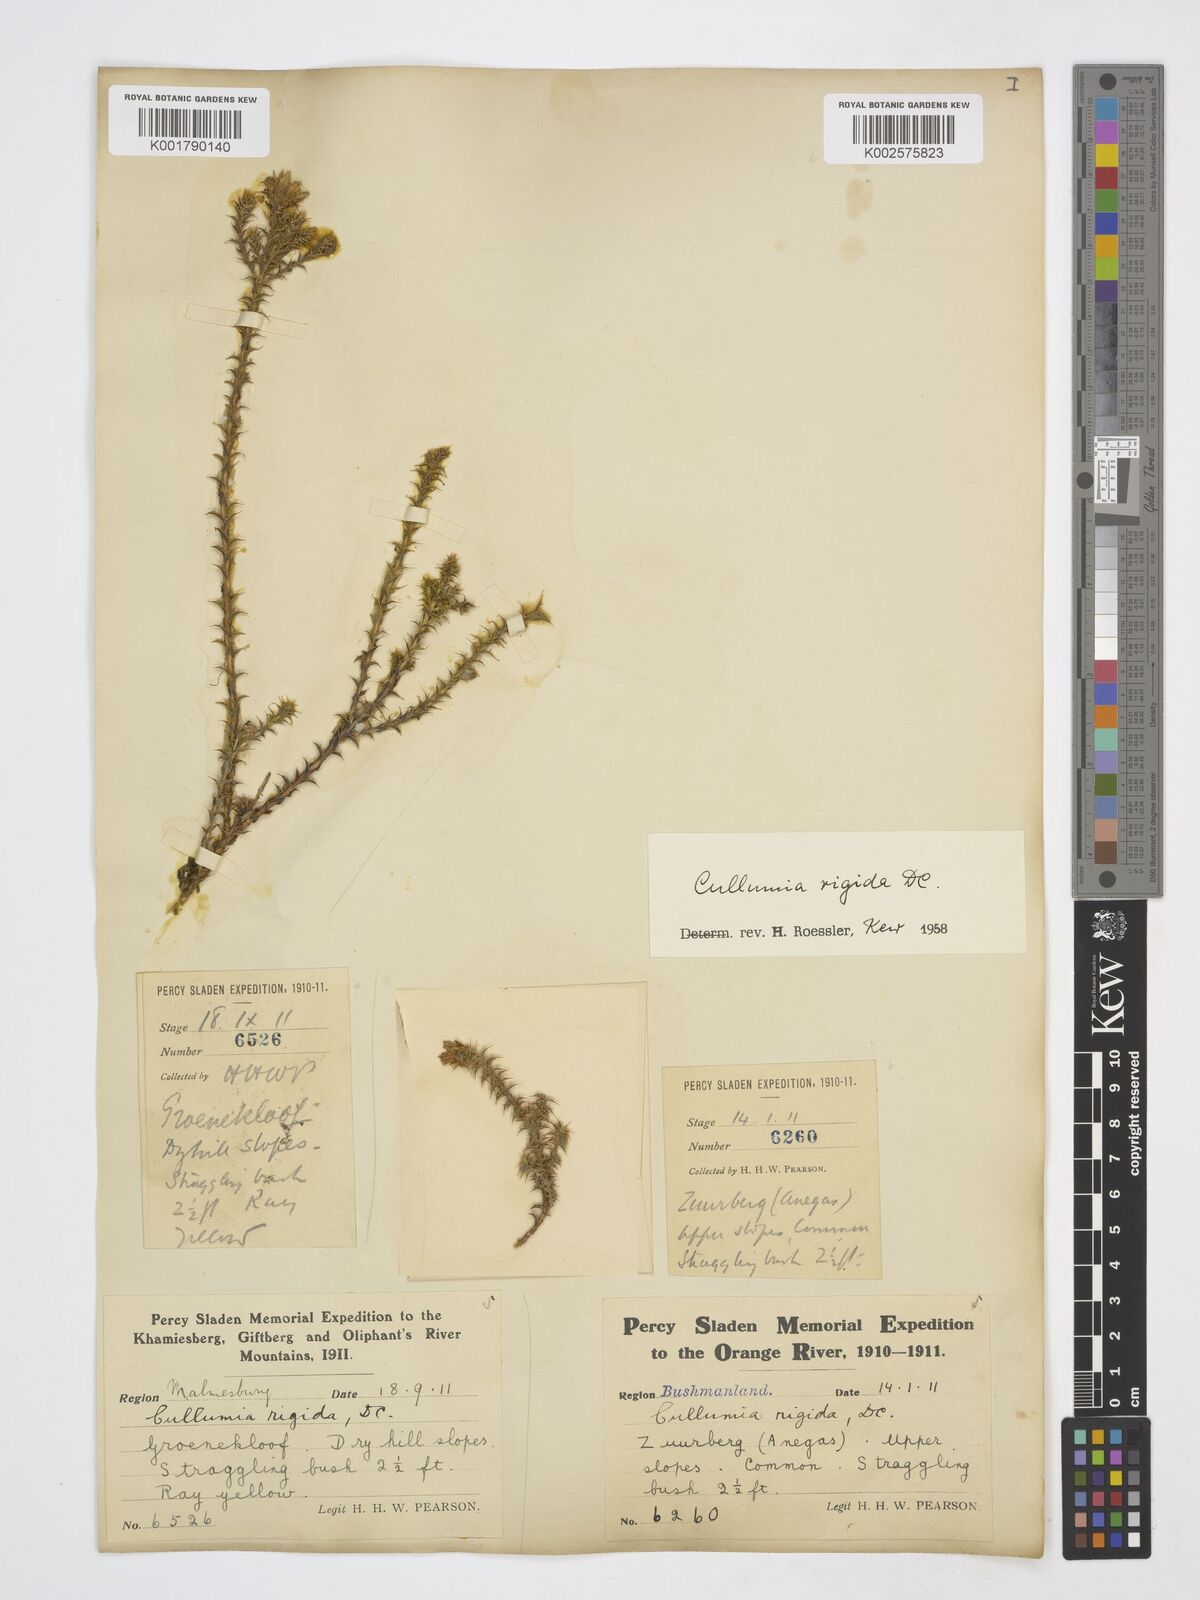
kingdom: Plantae
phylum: Tracheophyta
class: Magnoliopsida
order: Asterales
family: Asteraceae
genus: Cullumia
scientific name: Cullumia rigida
